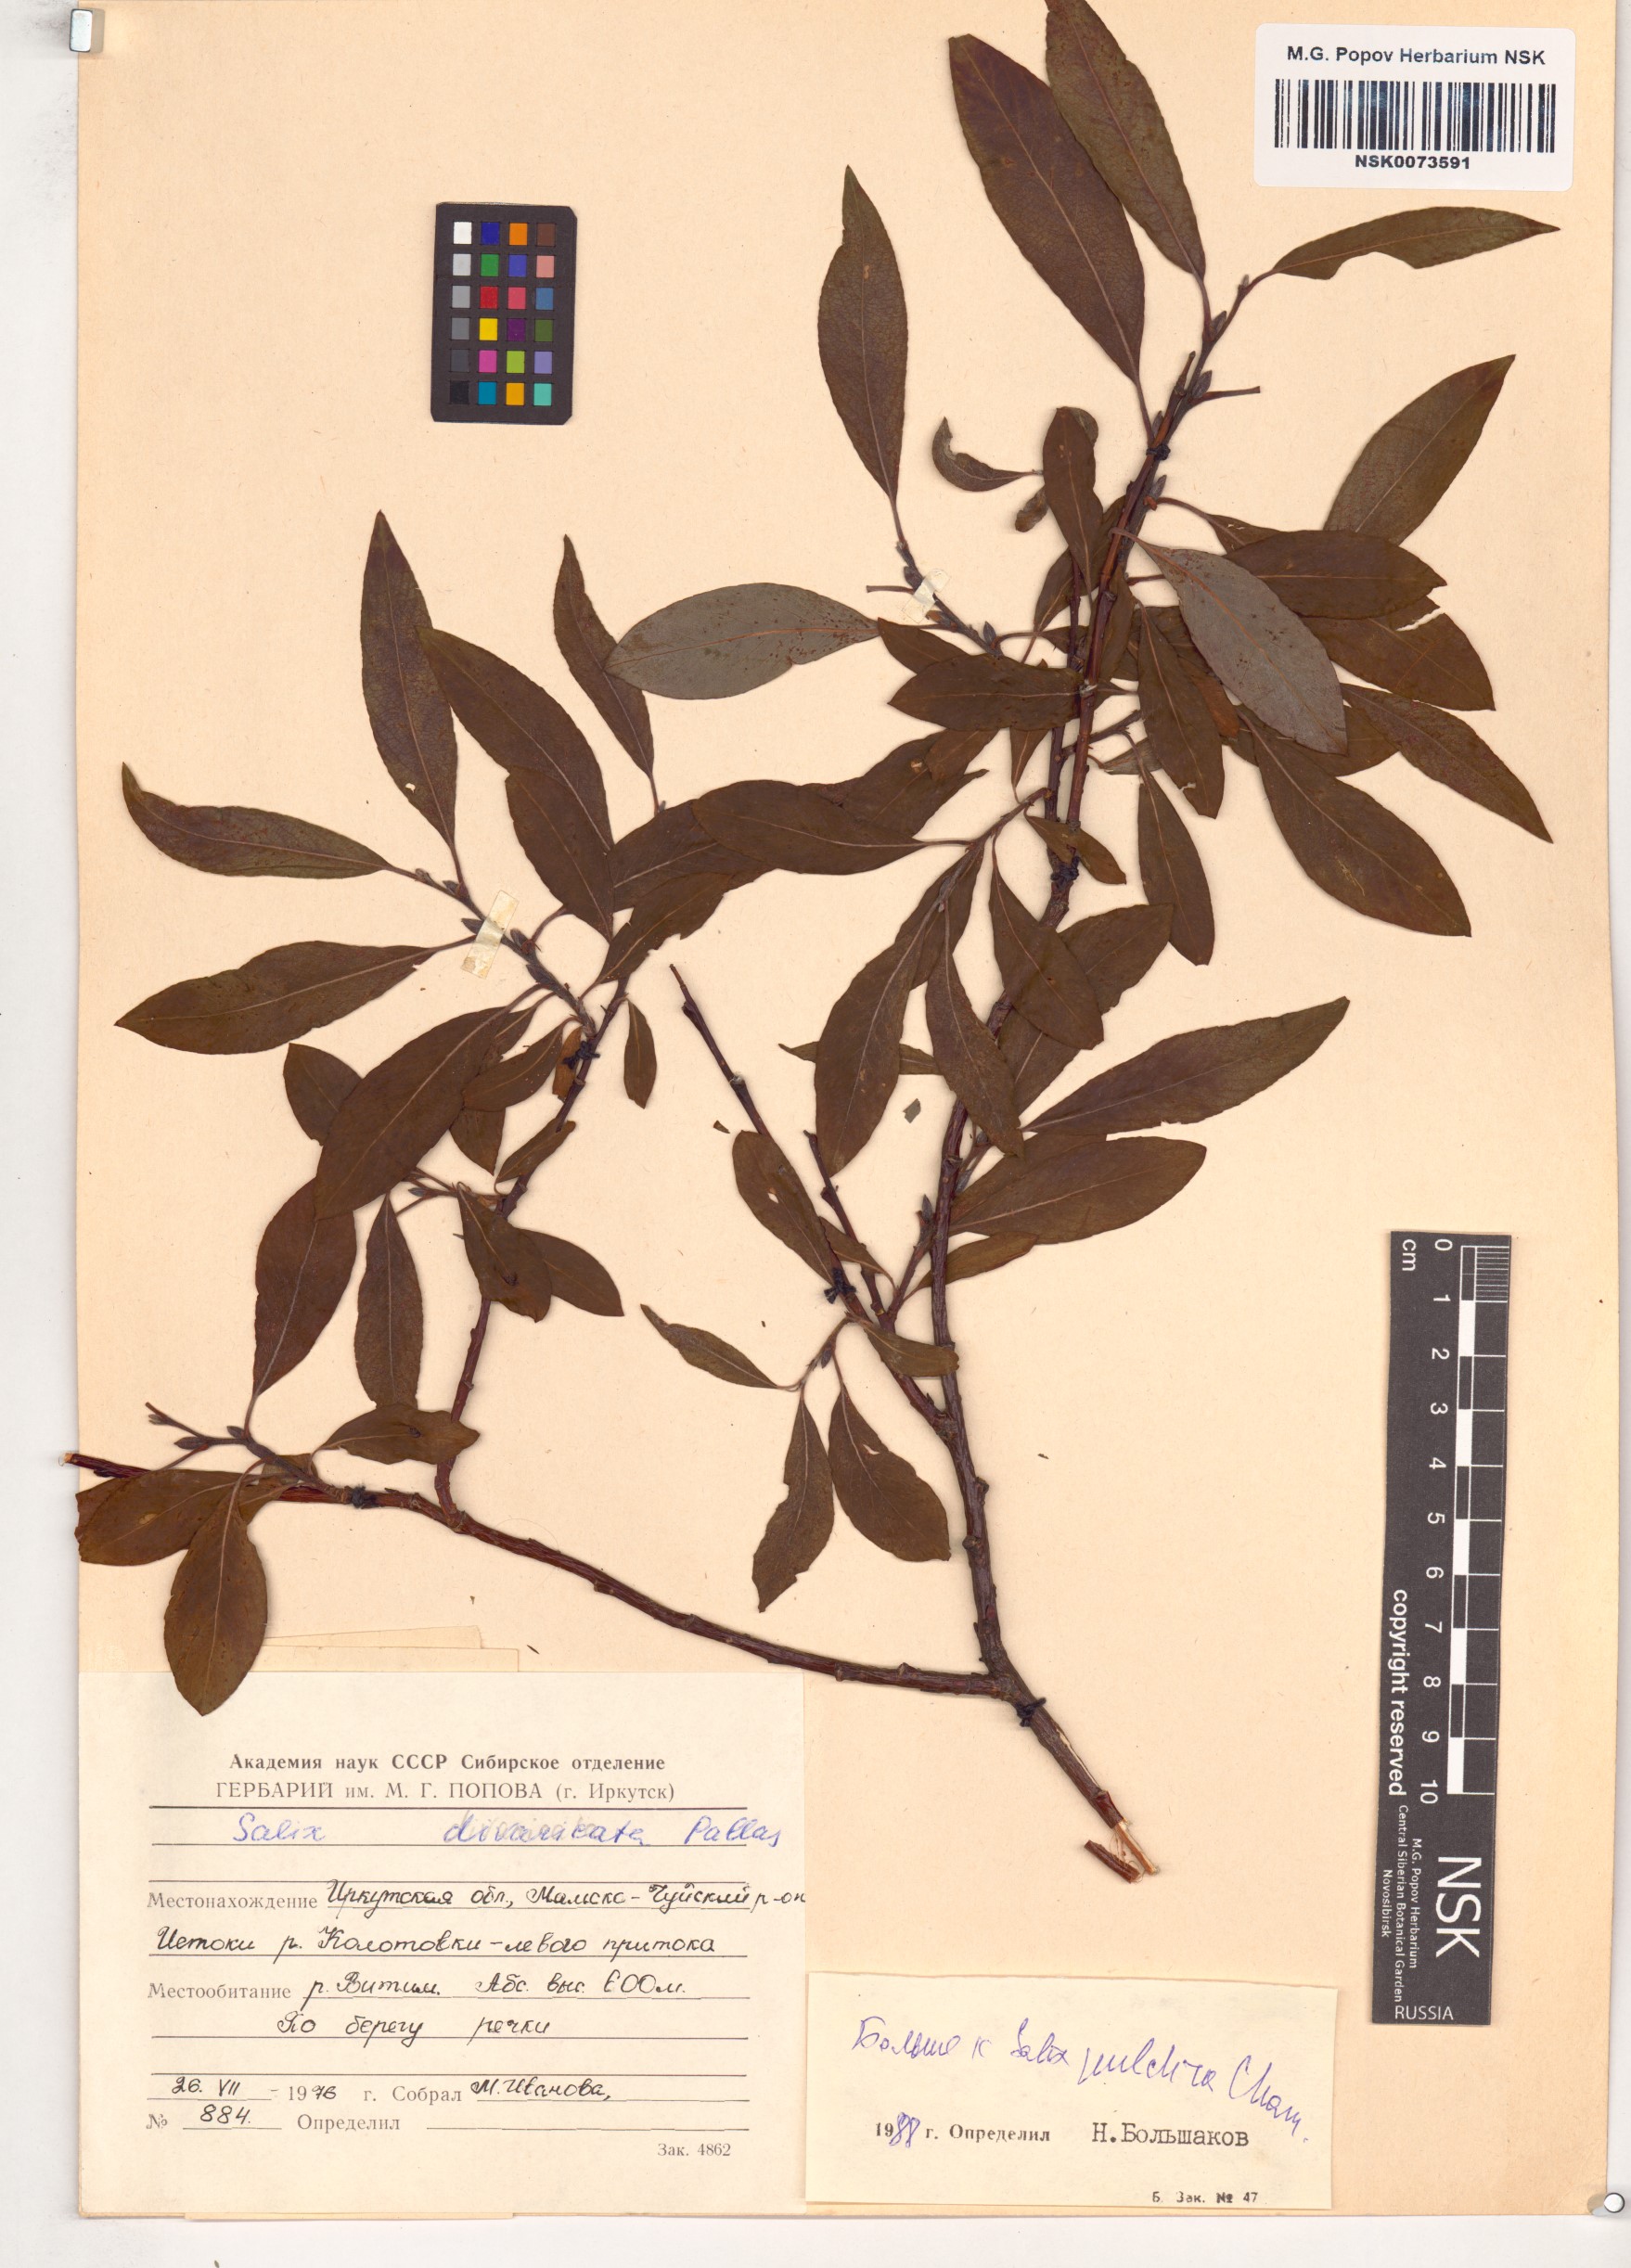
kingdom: Plantae
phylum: Tracheophyta
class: Magnoliopsida
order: Malpighiales
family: Salicaceae
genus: Salix
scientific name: Salix pulchra
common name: Diamond-leaved willow
